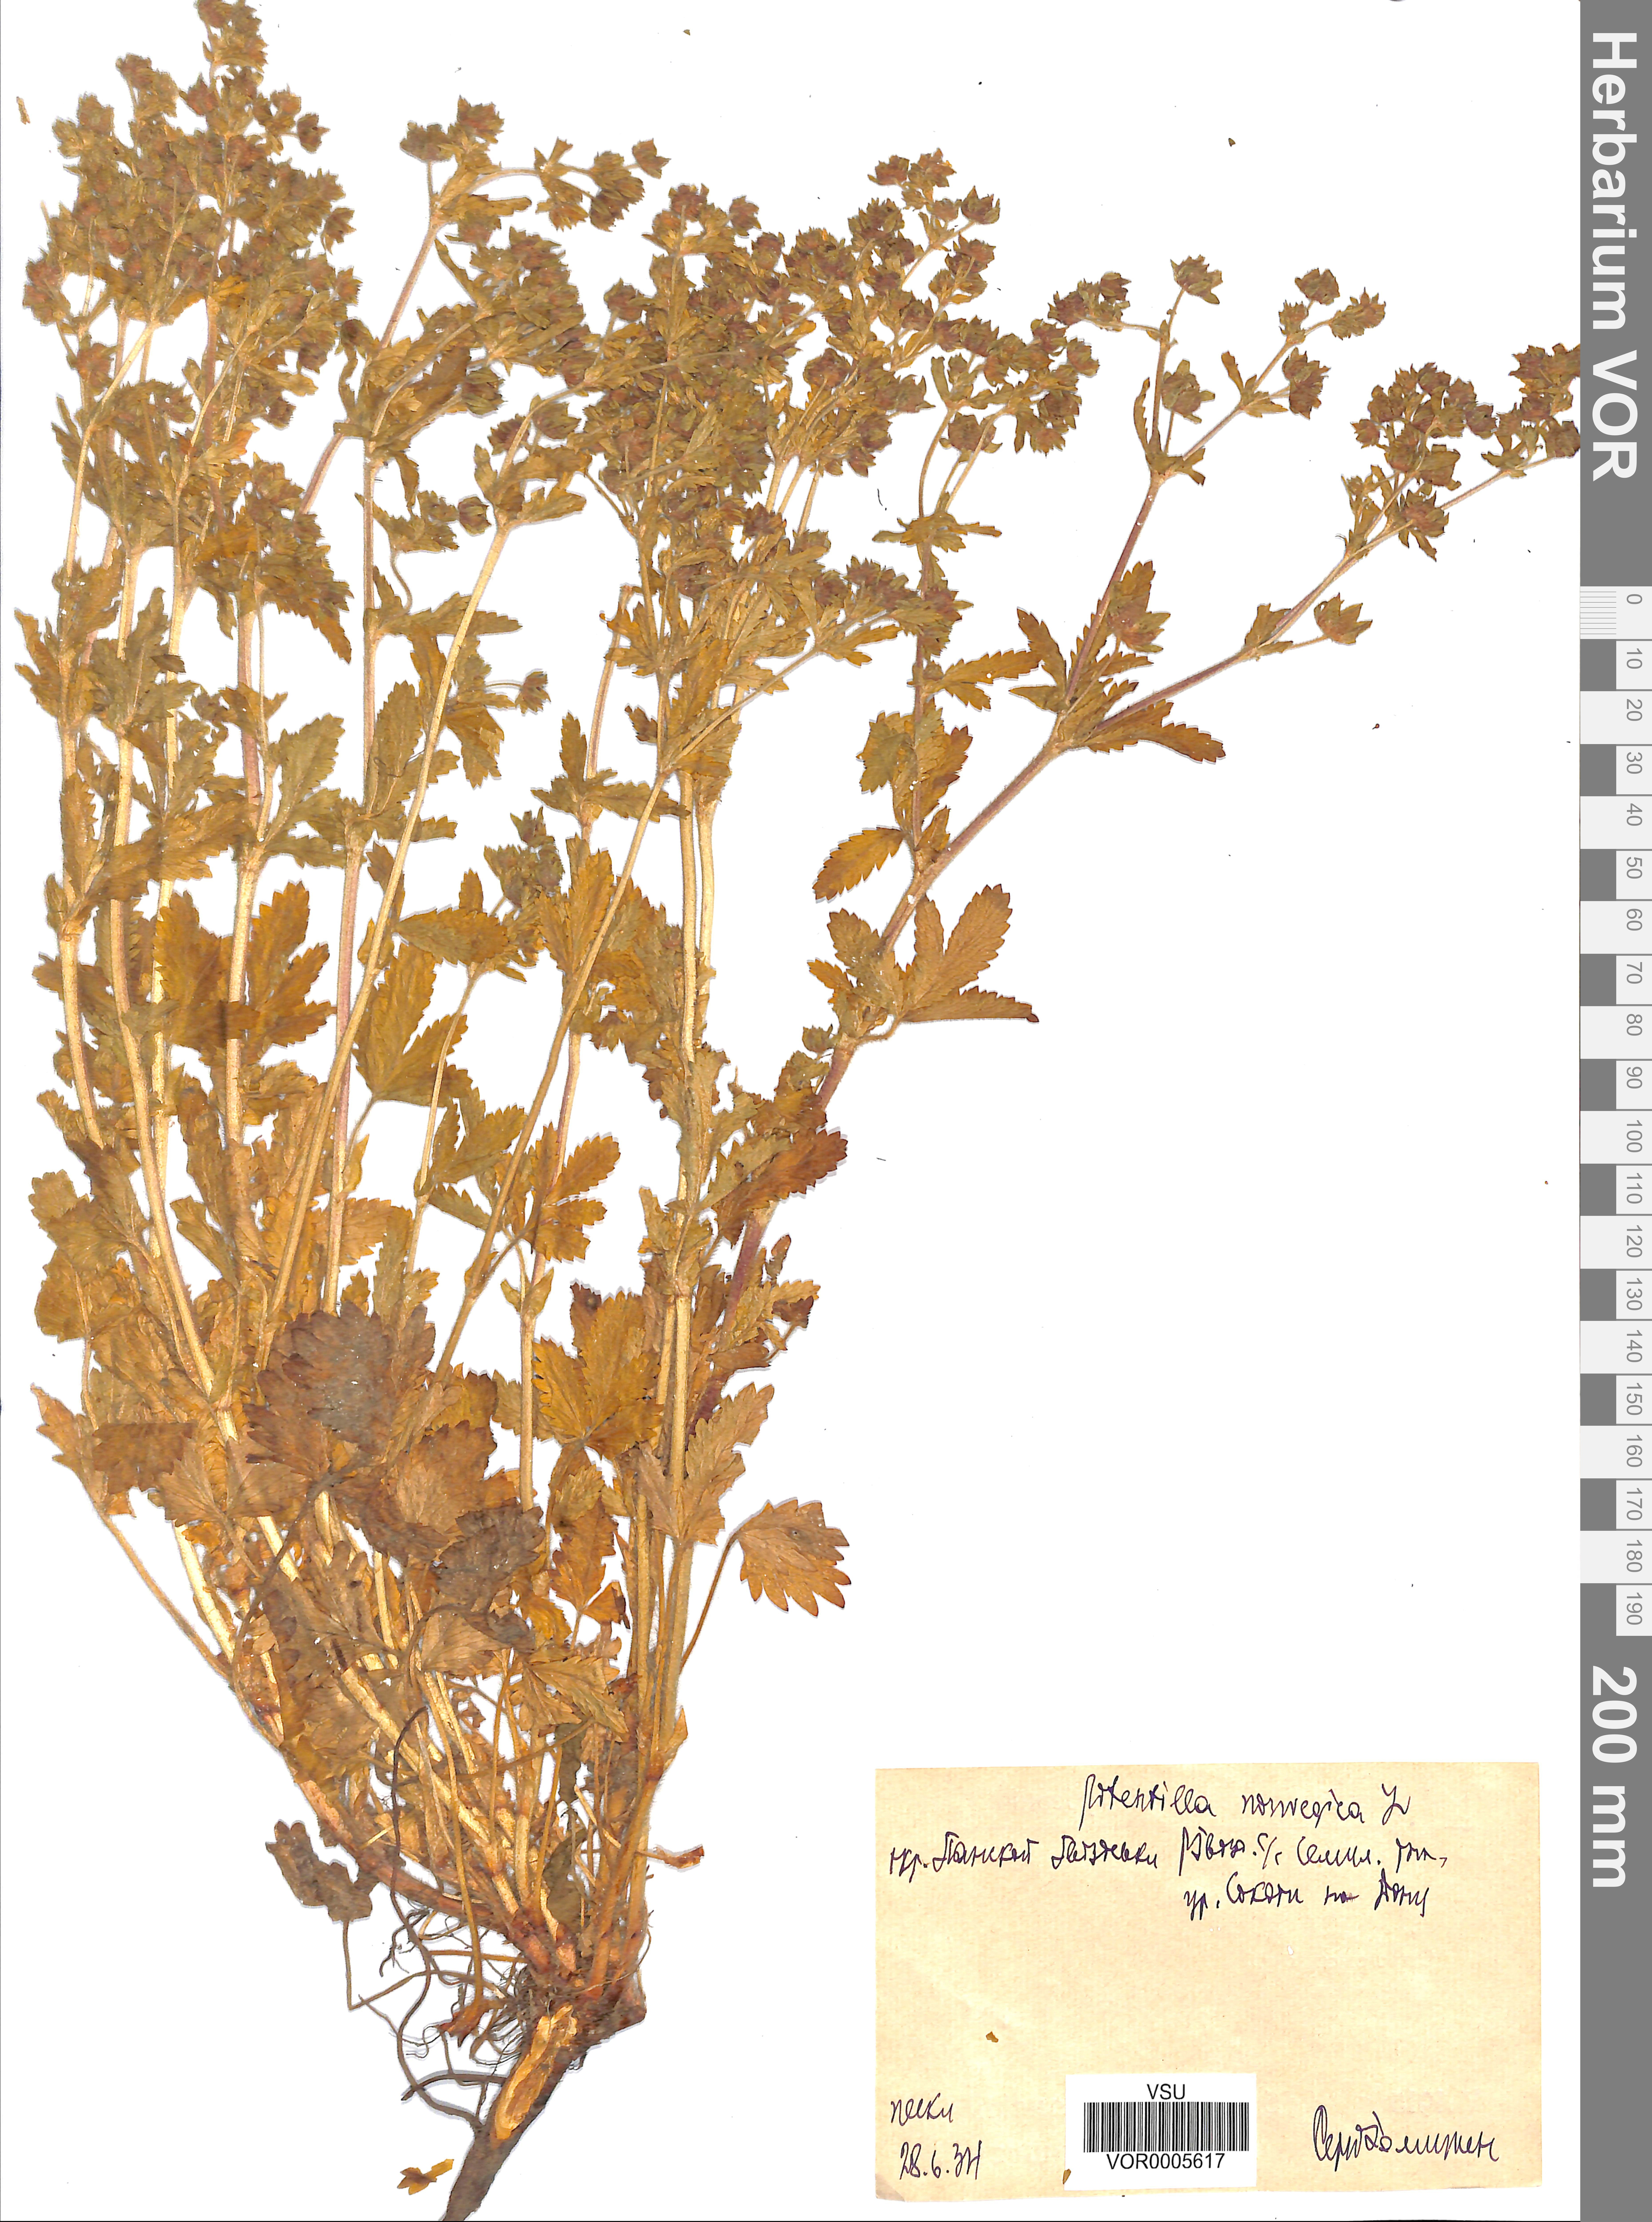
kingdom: Plantae
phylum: Tracheophyta
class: Magnoliopsida
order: Rosales
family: Rosaceae
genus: Potentilla
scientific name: Potentilla erecta
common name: Tormentil
